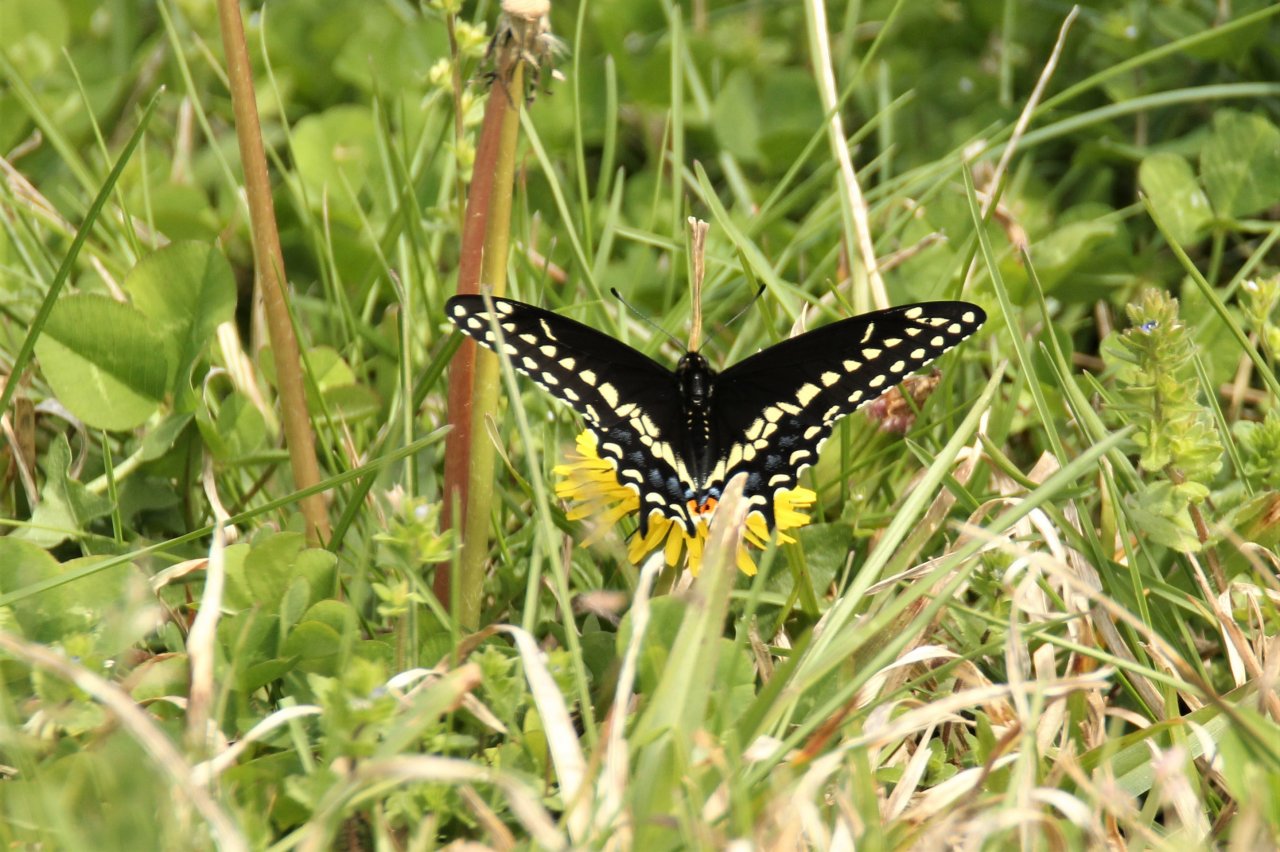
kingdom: Animalia
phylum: Arthropoda
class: Insecta
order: Lepidoptera
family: Papilionidae
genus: Papilio
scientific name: Papilio polyxenes
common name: Black Swallowtail
